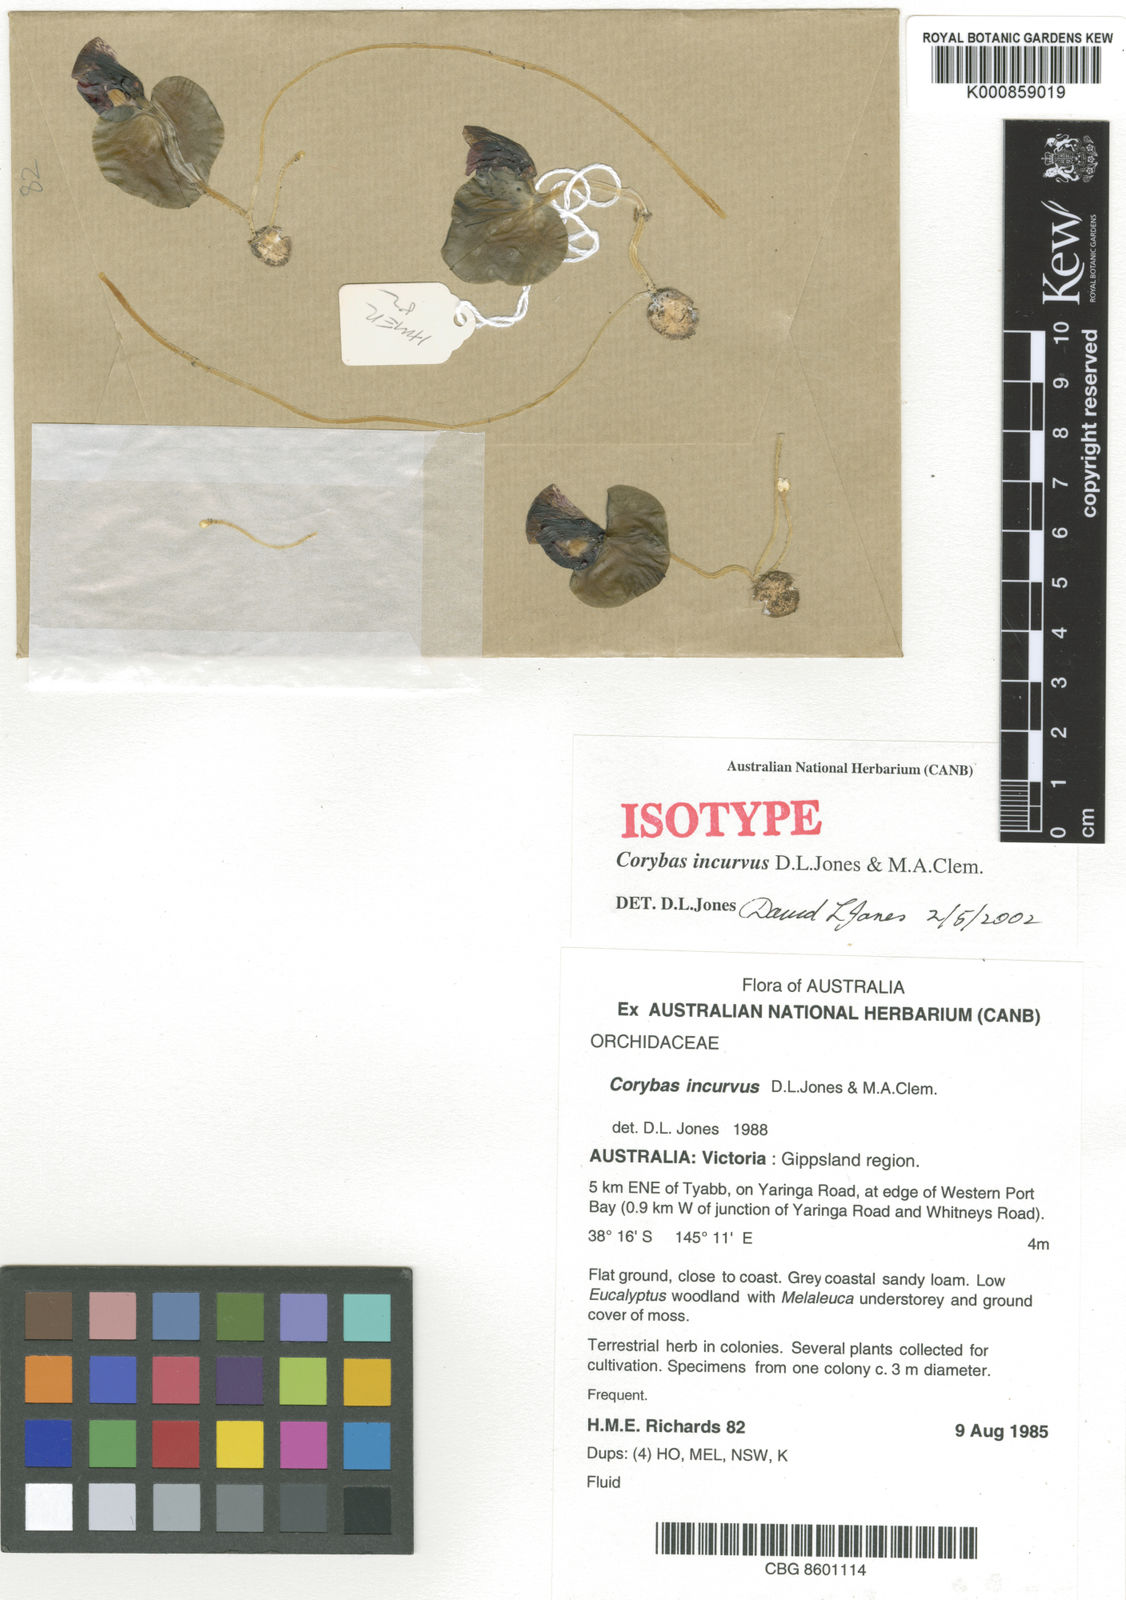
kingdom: Plantae
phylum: Tracheophyta
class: Liliopsida
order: Asparagales
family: Orchidaceae
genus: Corybas
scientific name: Corybas incurvus
